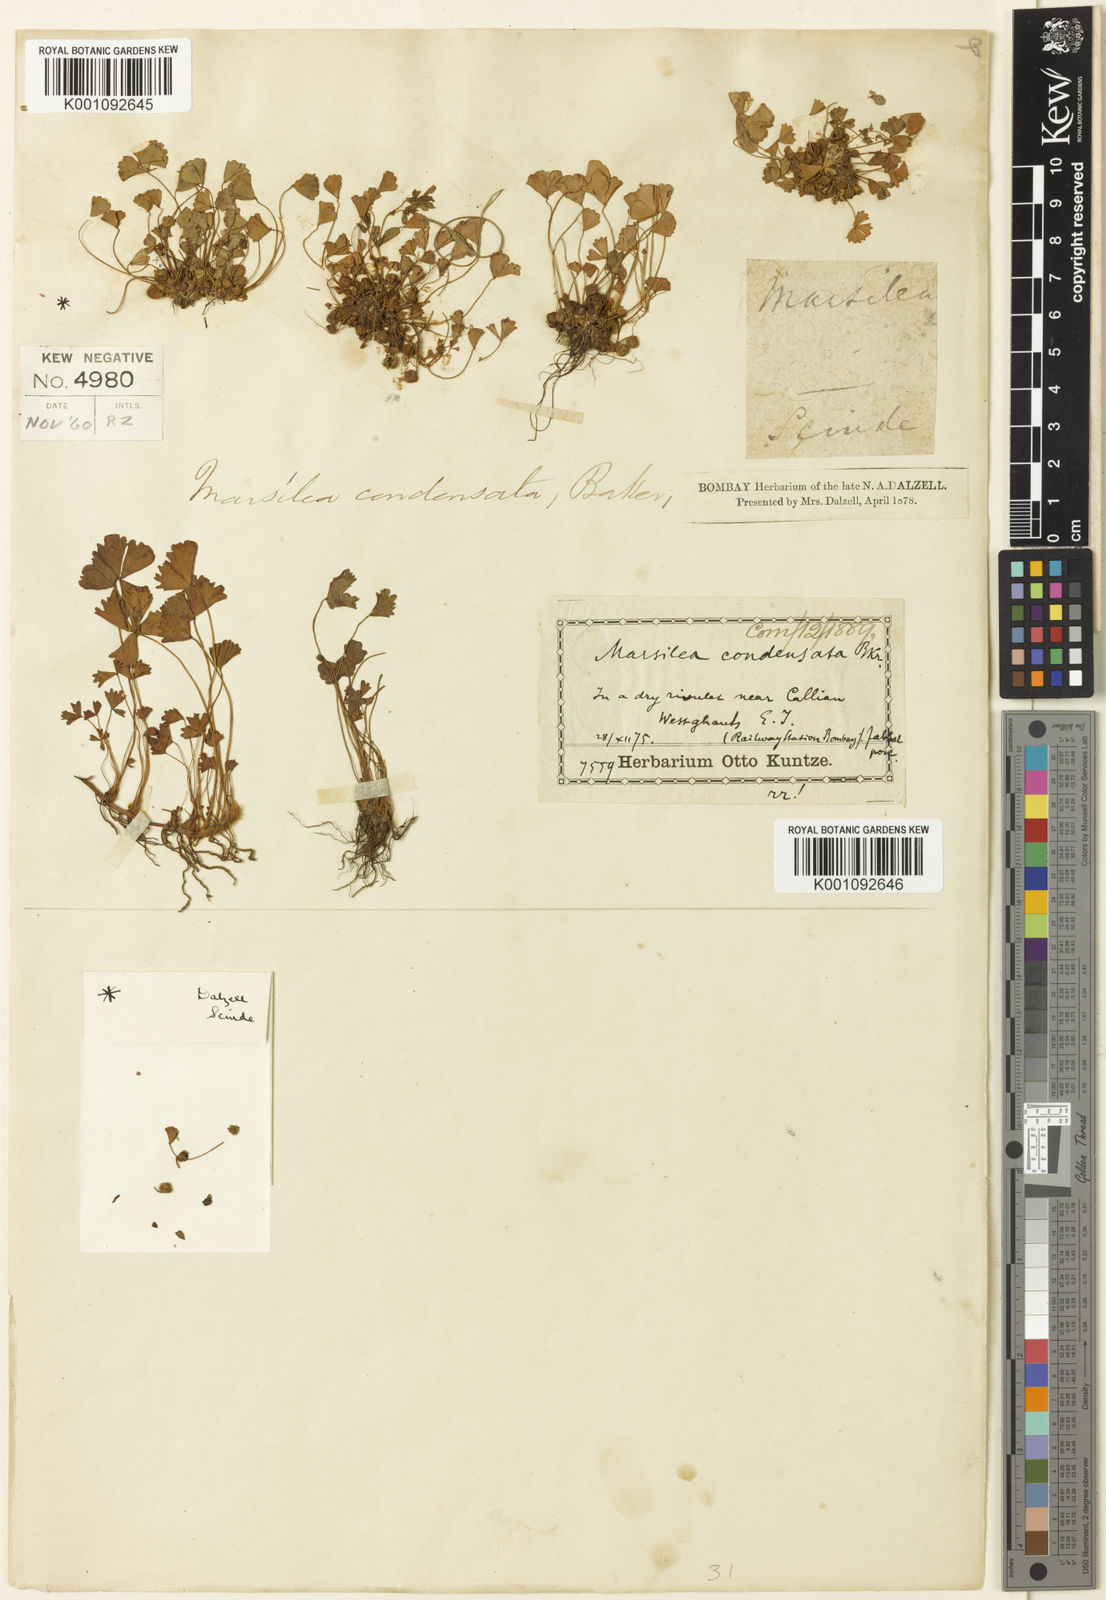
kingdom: Plantae
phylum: Tracheophyta
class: Polypodiopsida
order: Salviniales
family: Marsileaceae
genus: Marsilea
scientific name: Marsilea aegyptiaca
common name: Egyptian water-clover
